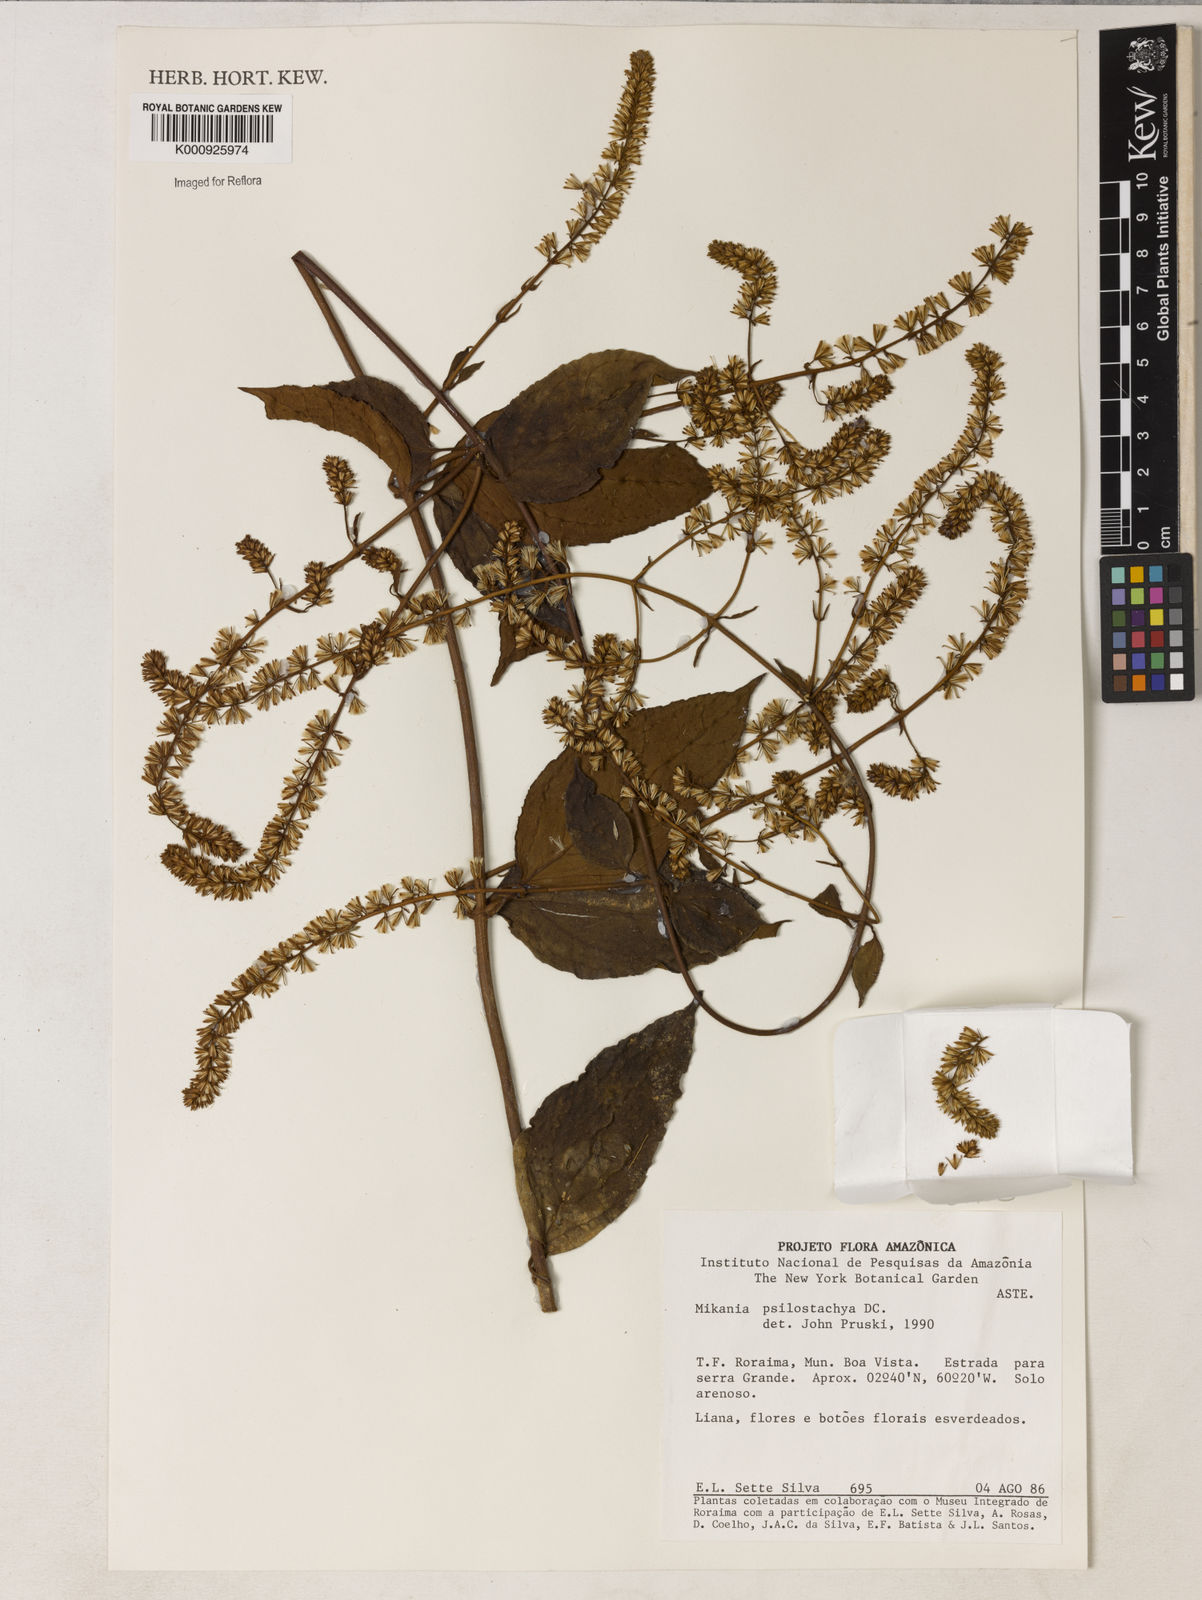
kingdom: Plantae
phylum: Tracheophyta
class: Magnoliopsida
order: Asterales
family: Asteraceae
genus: Mikania
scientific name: Mikania psilostachya
